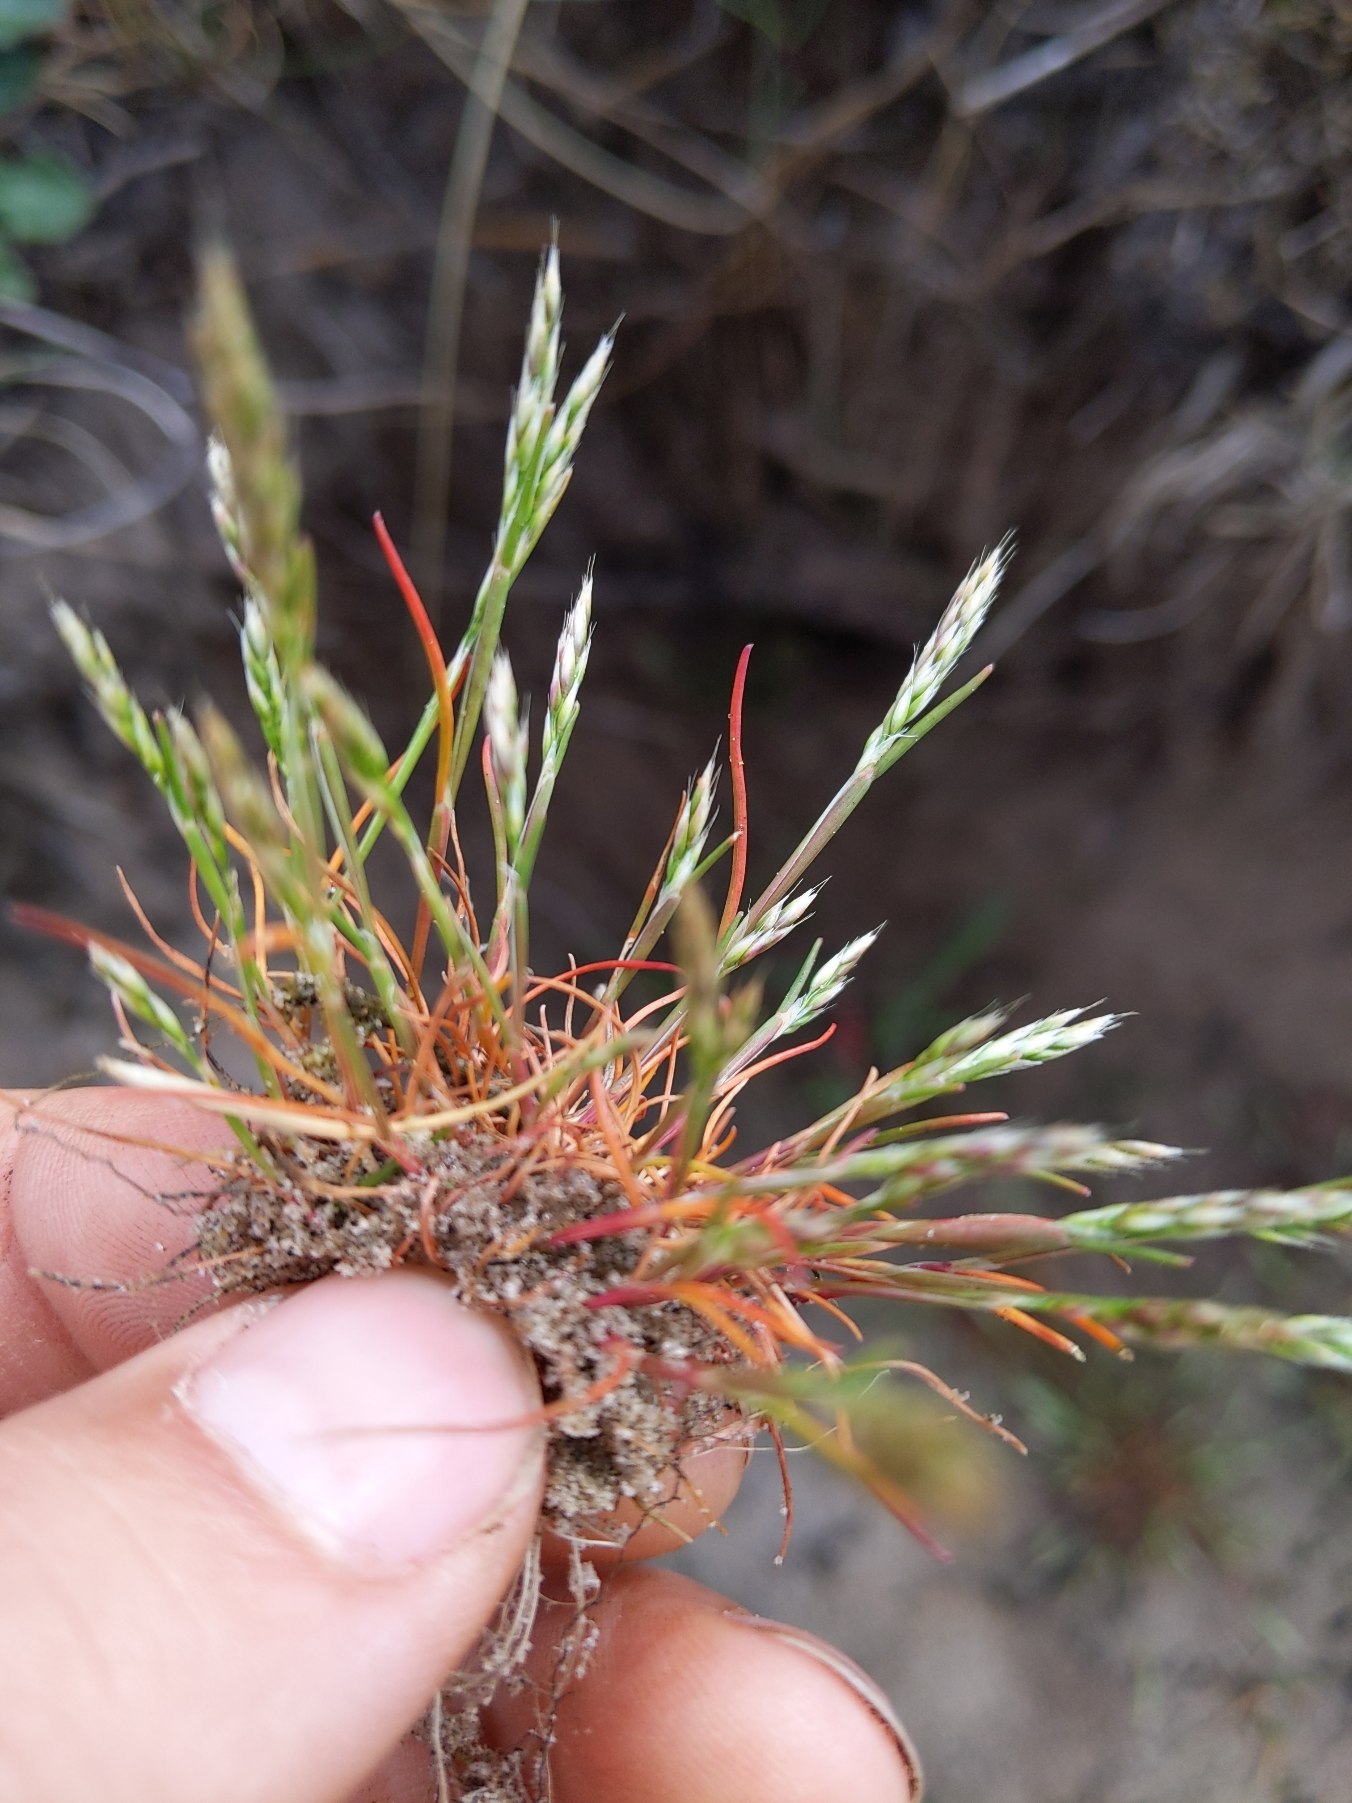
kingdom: Plantae
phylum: Tracheophyta
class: Liliopsida
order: Poales
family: Poaceae
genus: Aira
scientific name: Aira praecox
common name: Tidlig dværgbunke
